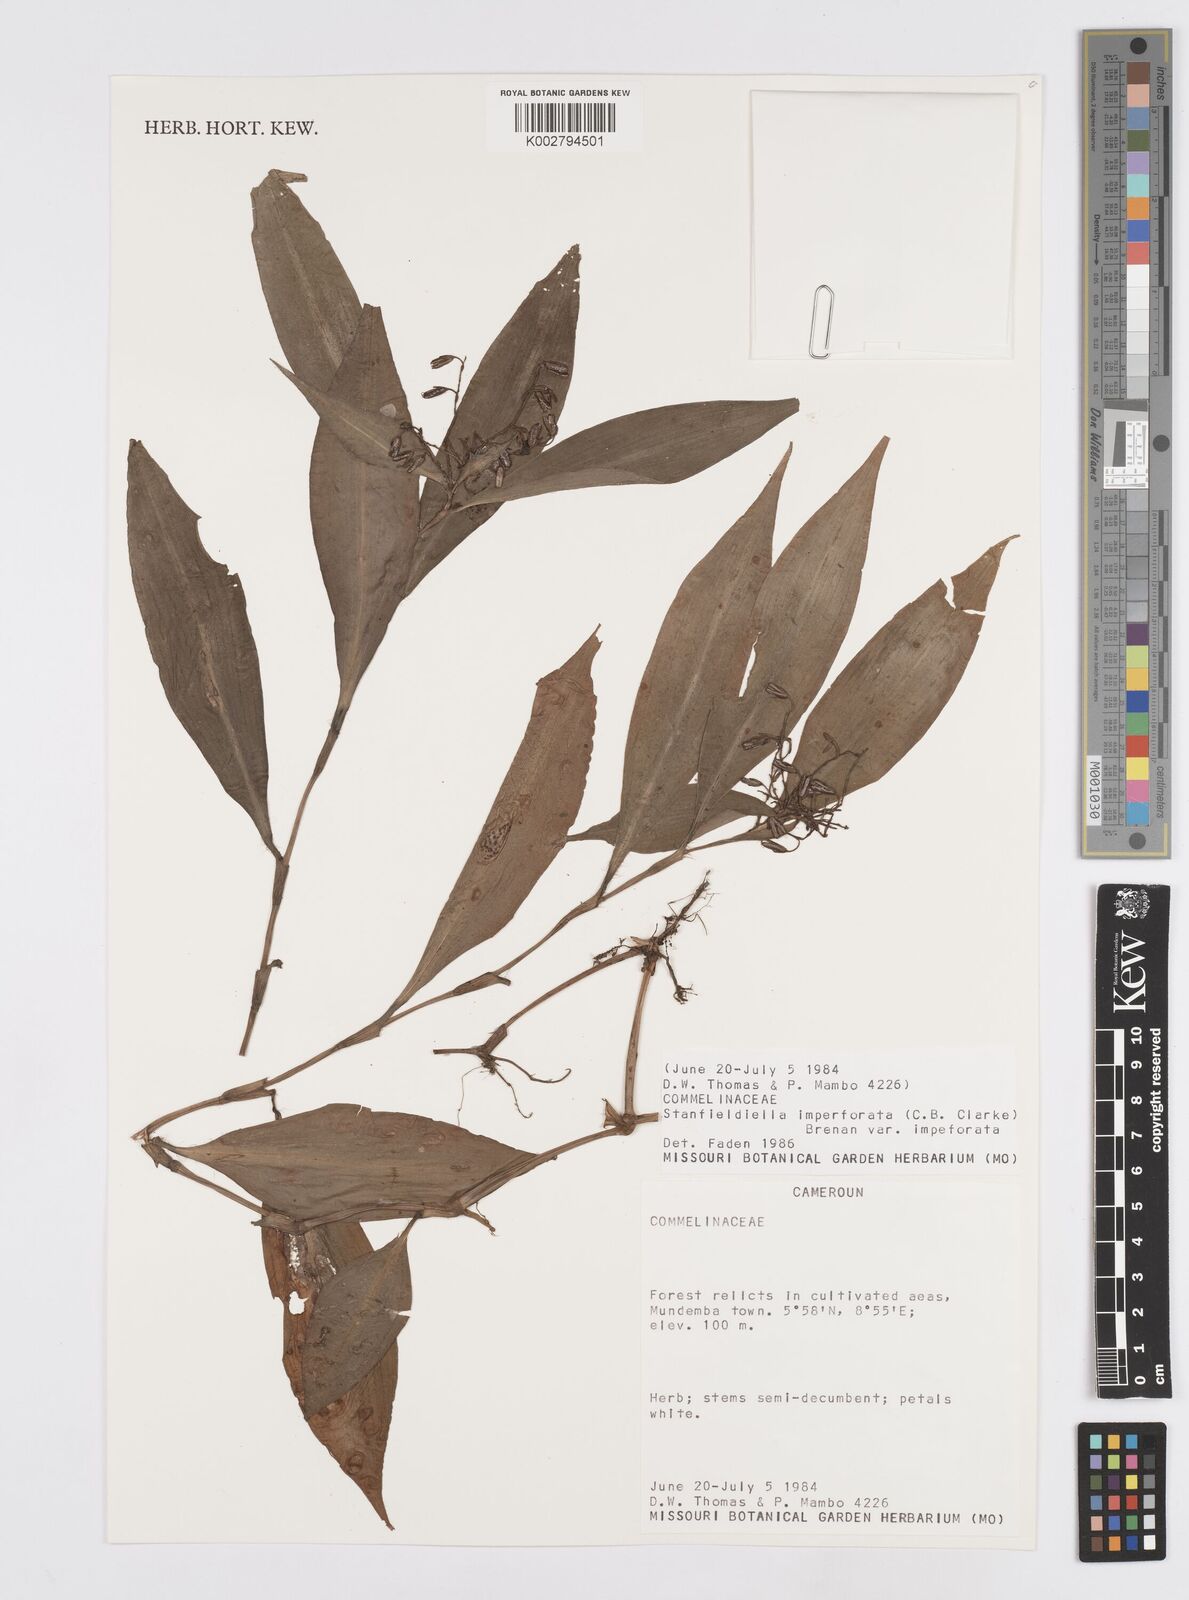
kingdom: Plantae
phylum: Tracheophyta
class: Liliopsida
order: Commelinales
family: Commelinaceae
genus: Stanfieldiella
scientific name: Stanfieldiella imperforata
